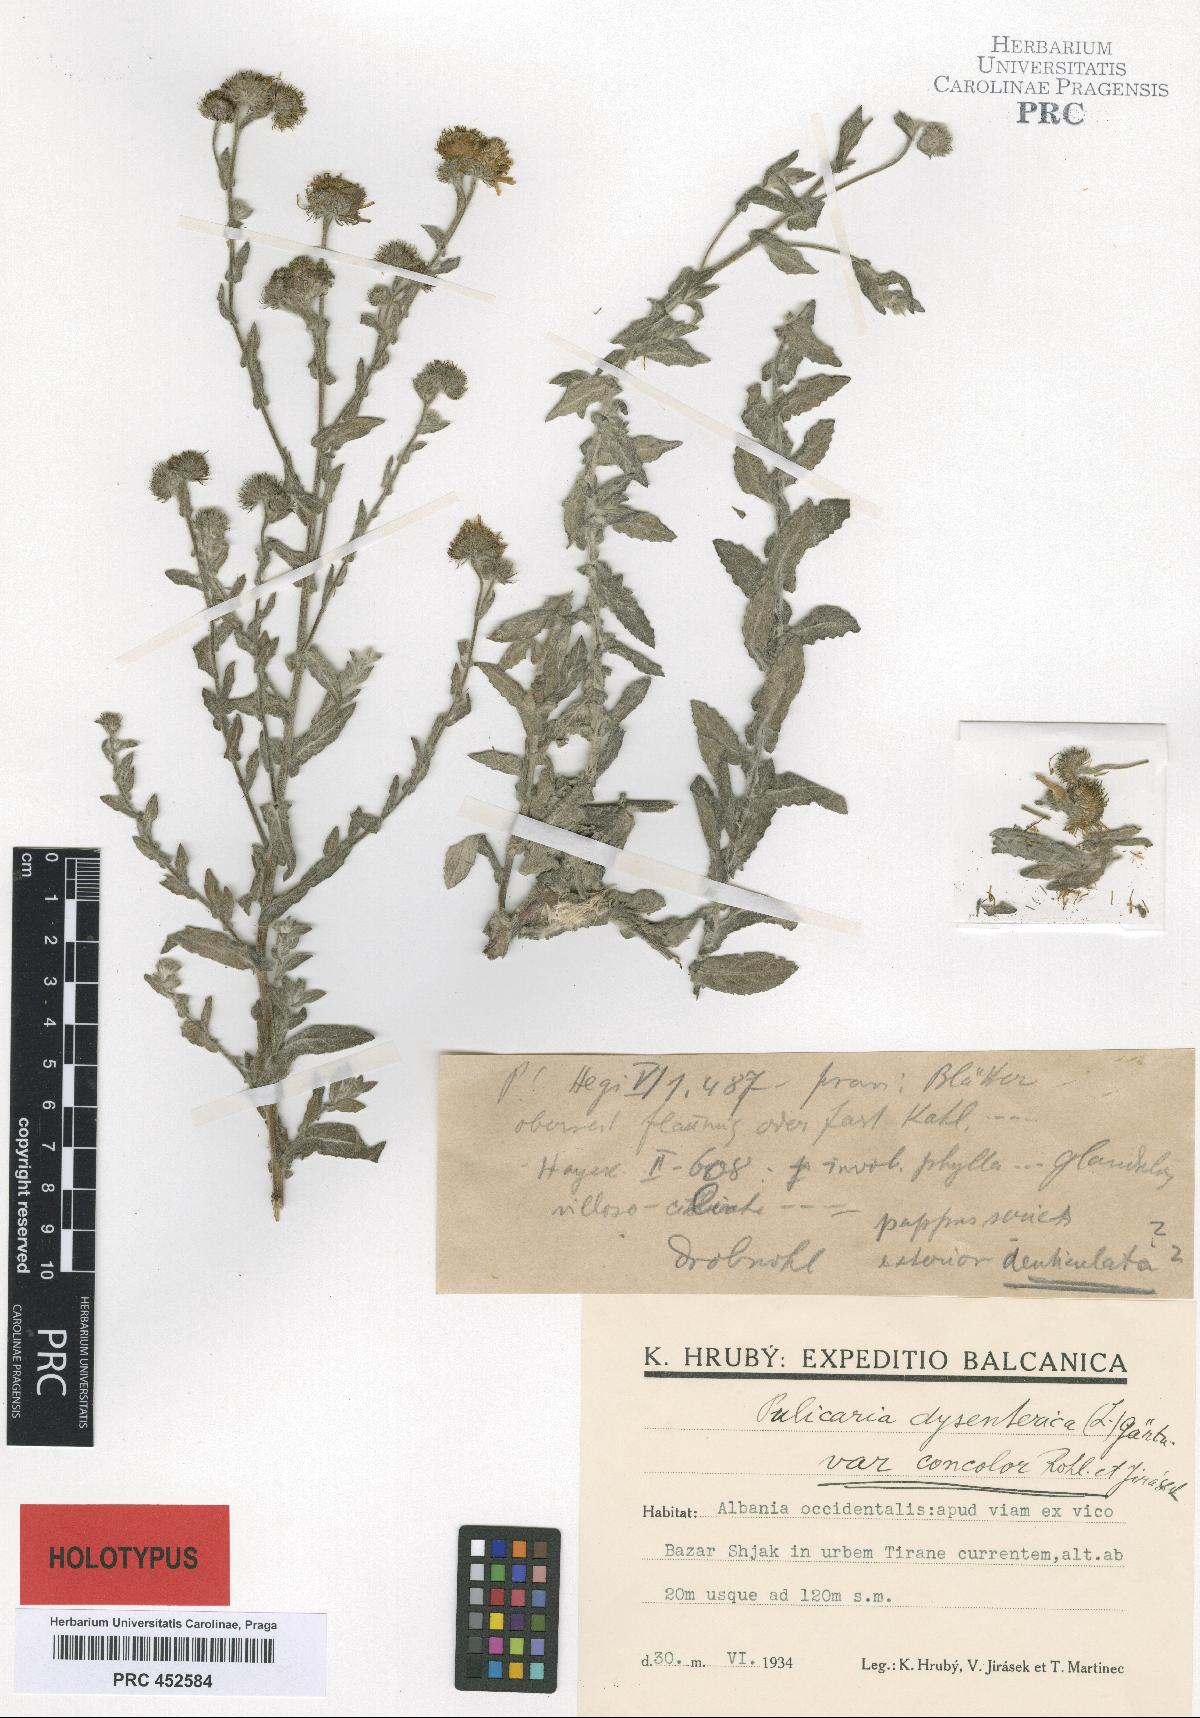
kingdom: Plantae
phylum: Tracheophyta
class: Magnoliopsida
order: Asterales
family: Asteraceae
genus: Pulicaria
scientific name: Pulicaria dysenterica
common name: Common fleabane
